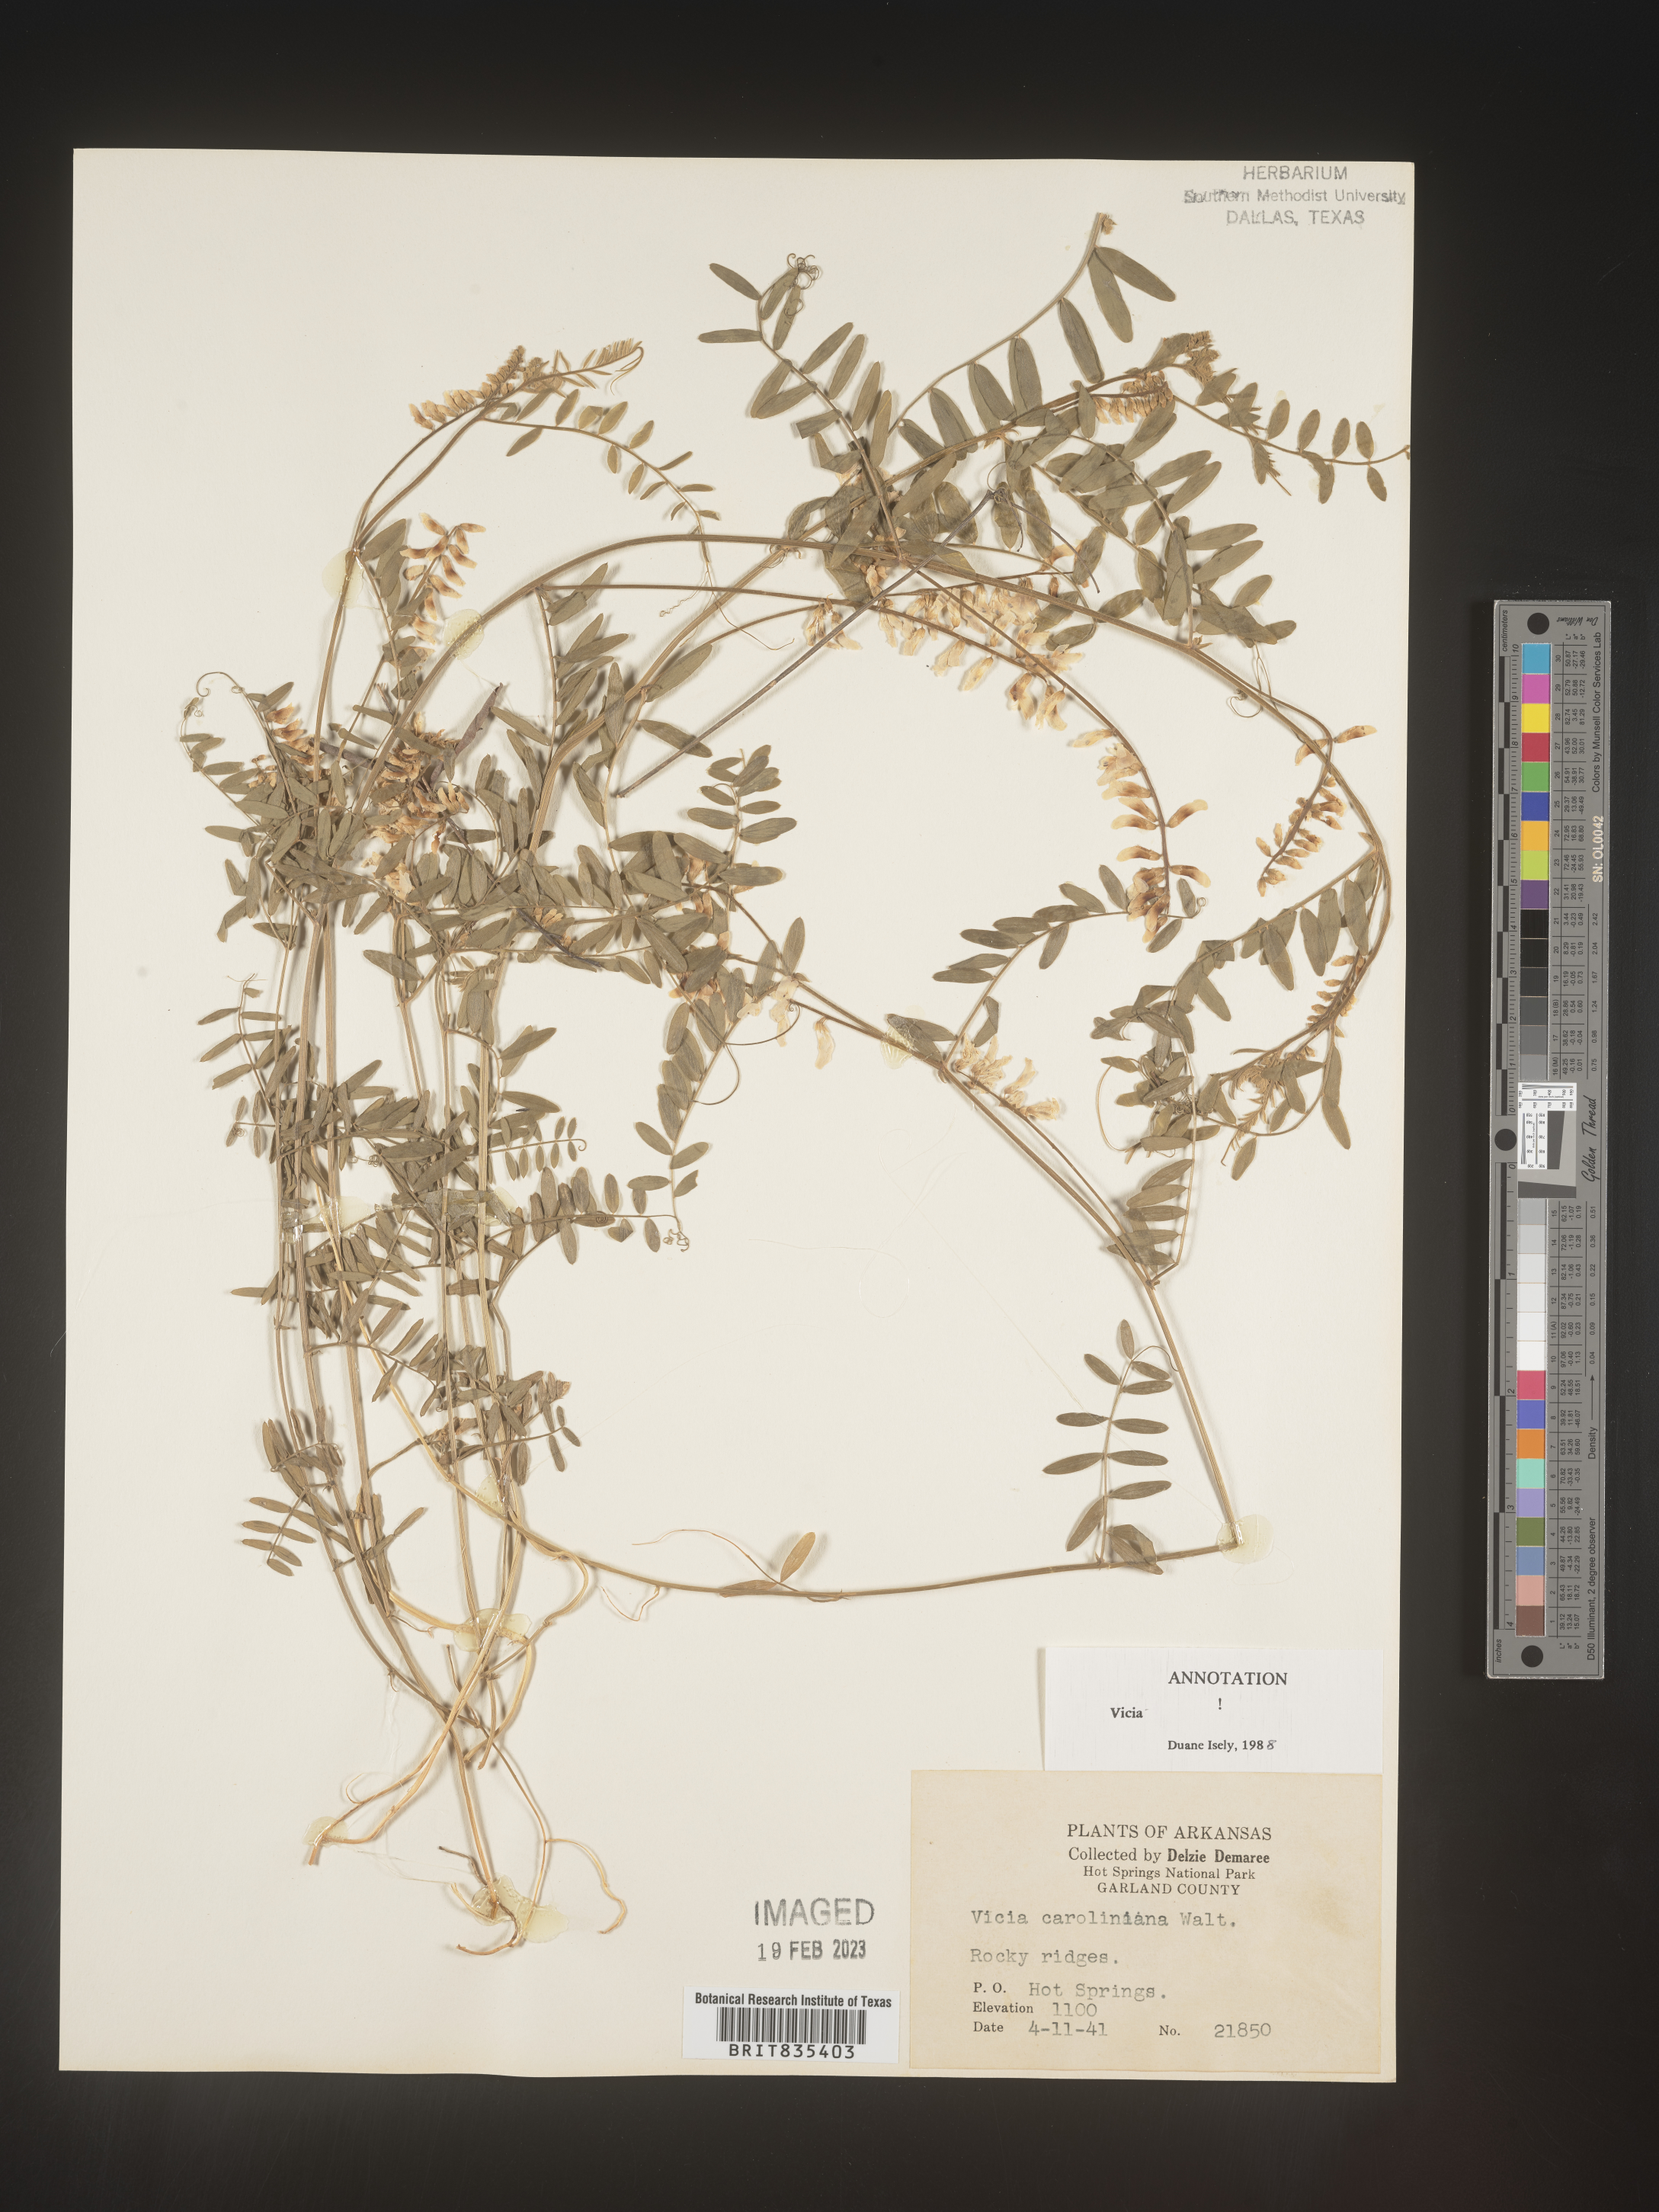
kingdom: Plantae
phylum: Tracheophyta
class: Magnoliopsida
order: Fabales
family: Fabaceae
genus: Vicia
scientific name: Vicia caroliniana
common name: Carolina vetch
